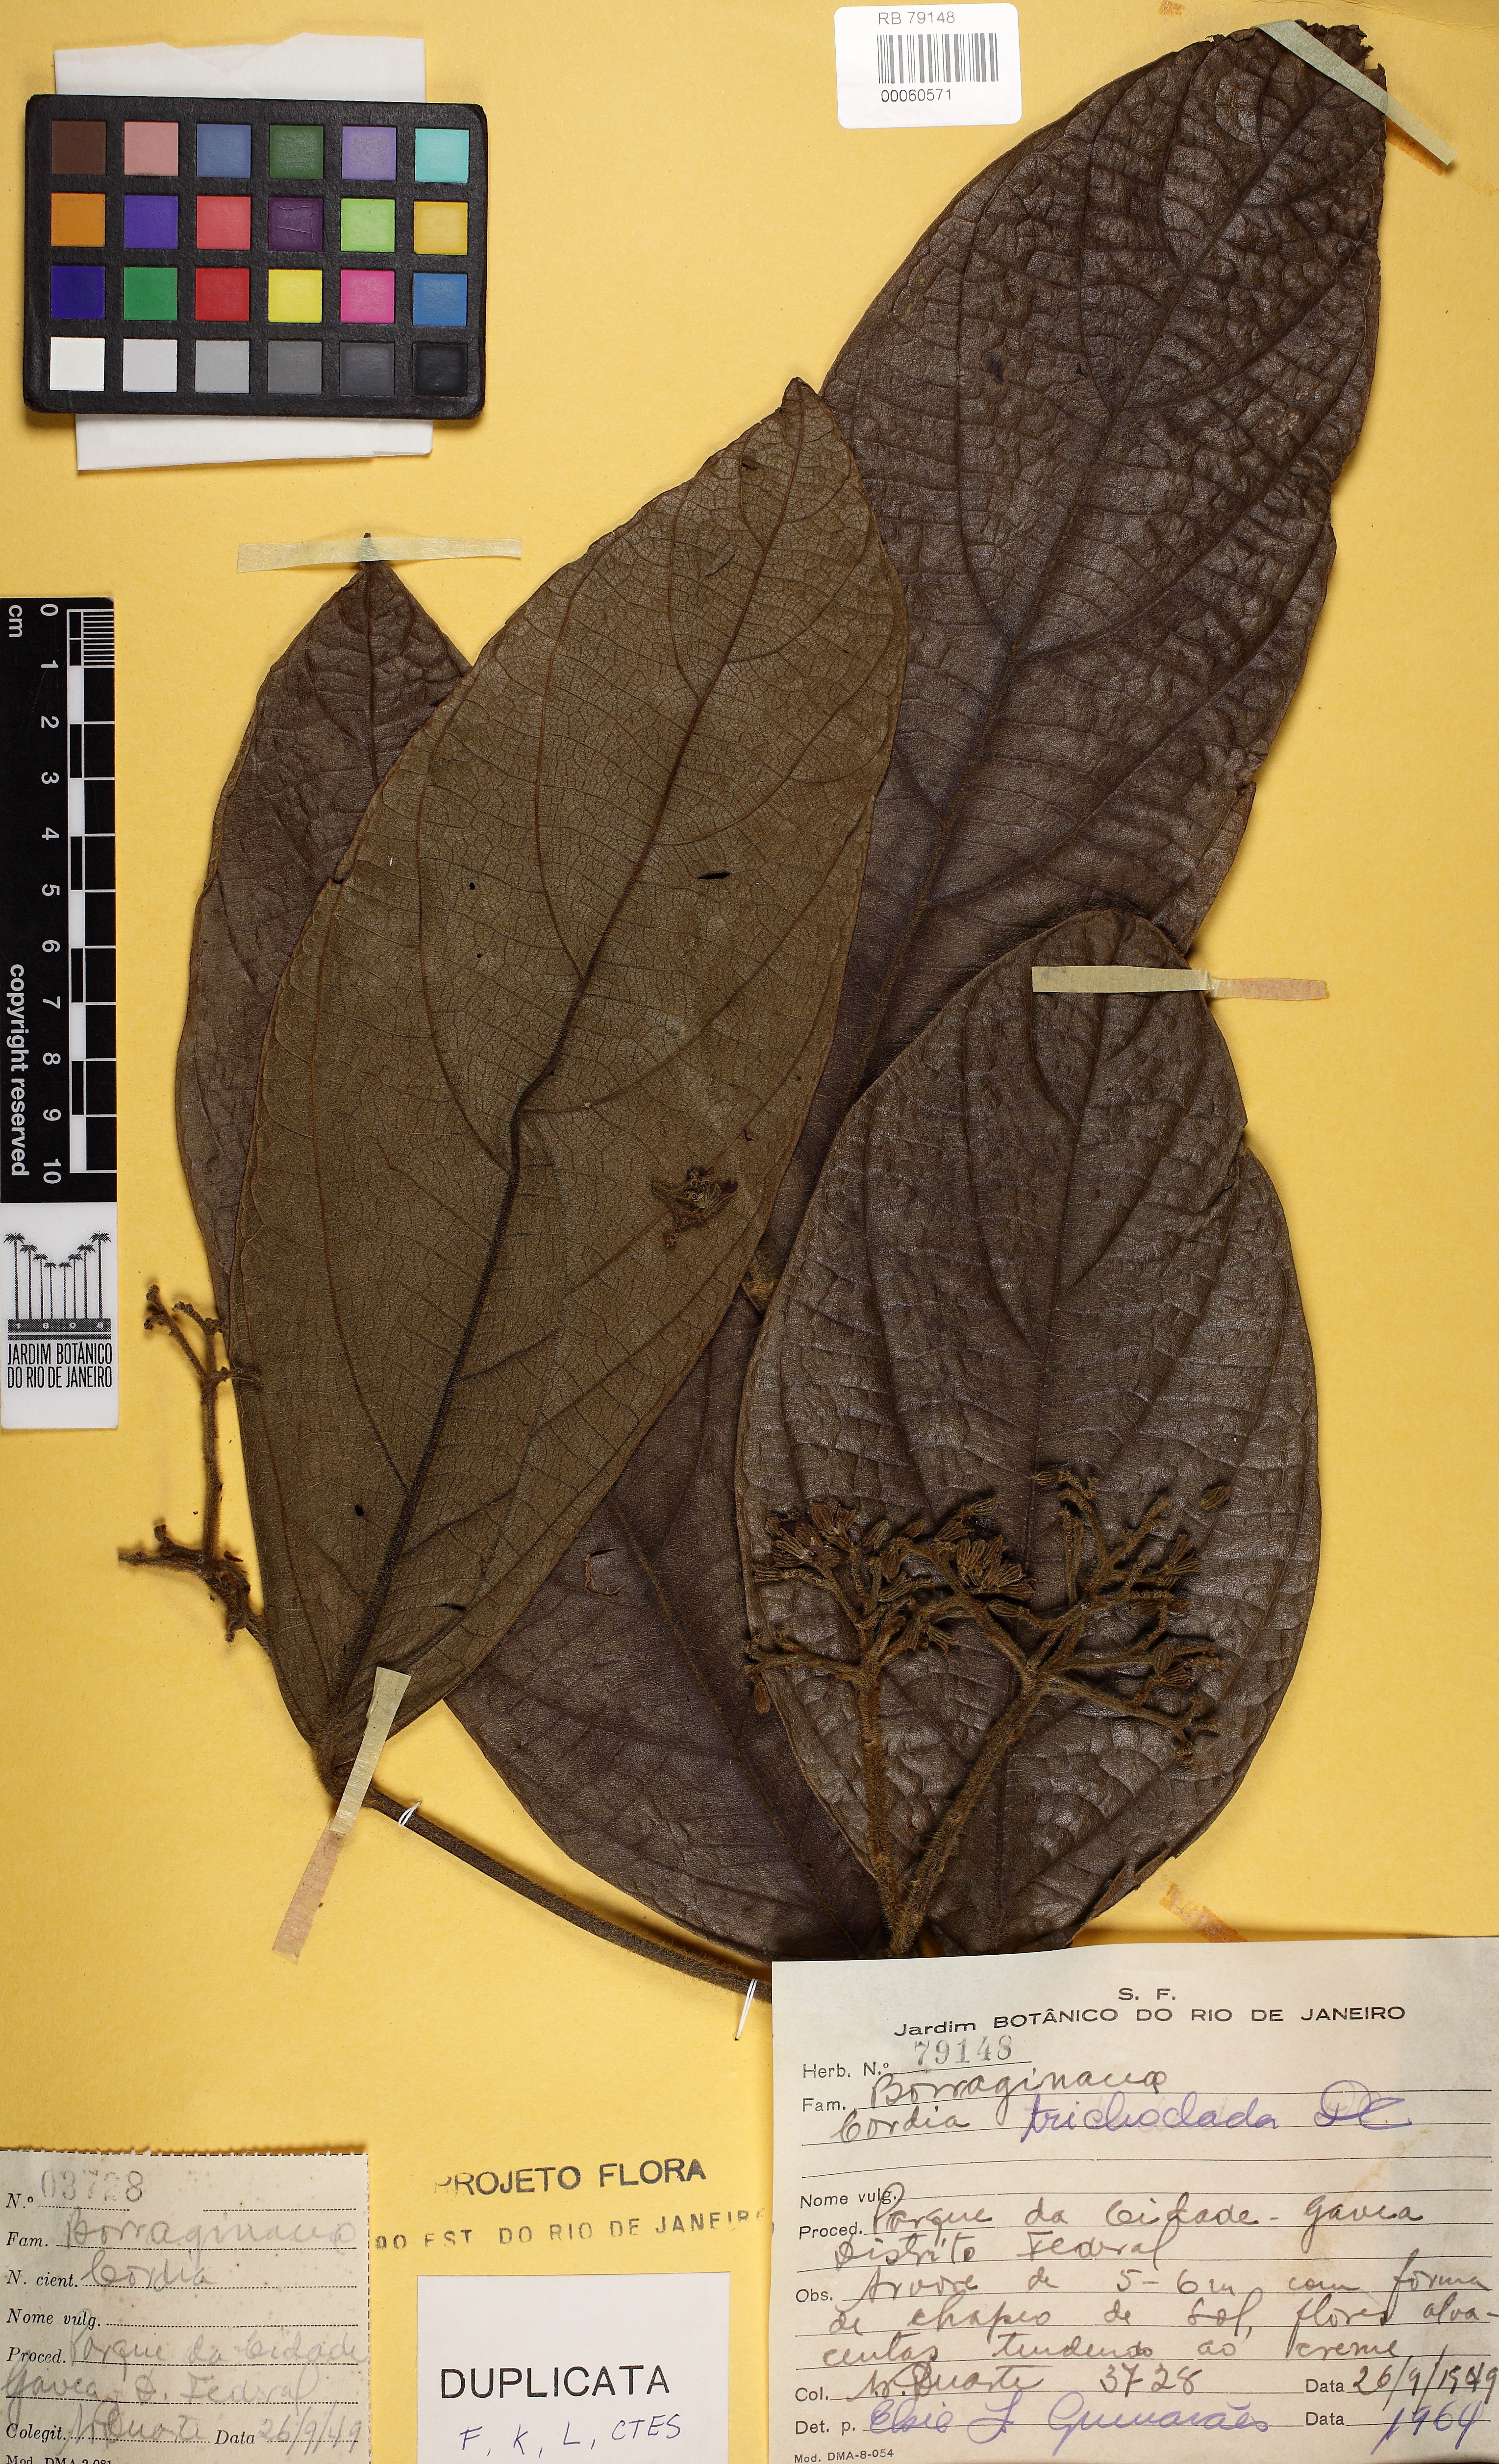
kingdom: Plantae
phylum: Tracheophyta
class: Magnoliopsida
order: Boraginales
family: Cordiaceae
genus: Cordia
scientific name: Cordia trichoclada
